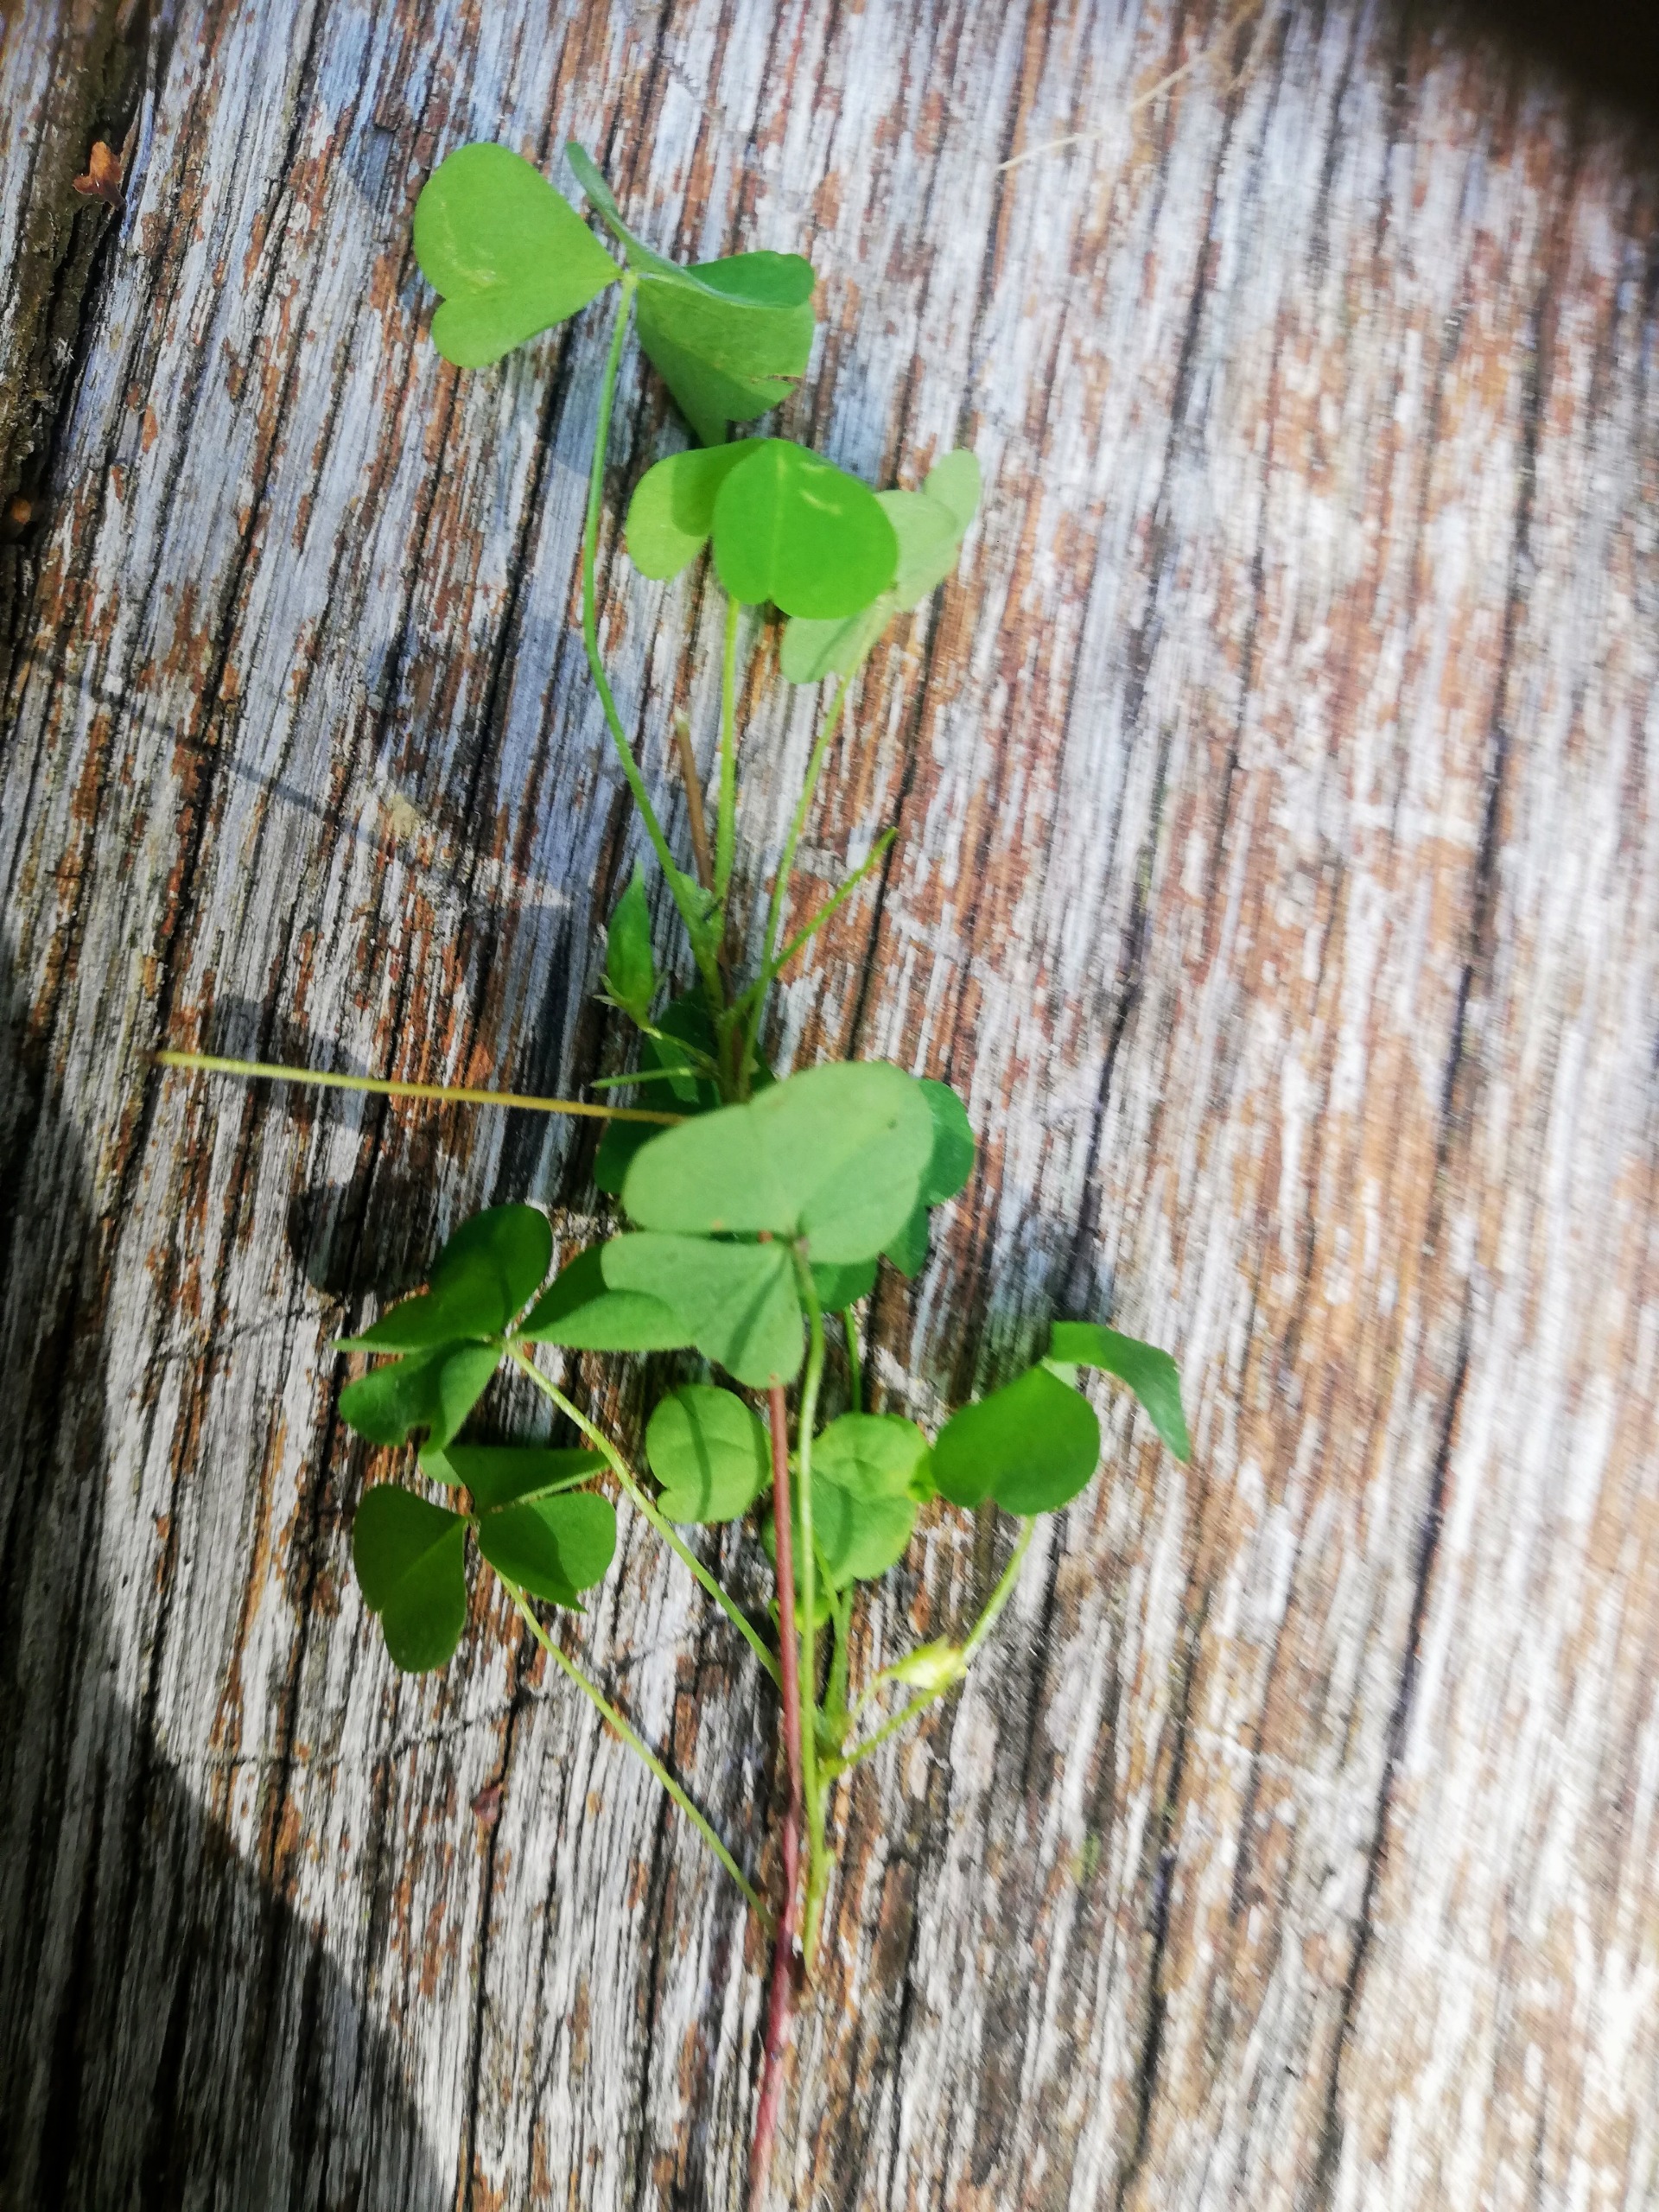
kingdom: Plantae
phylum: Tracheophyta
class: Magnoliopsida
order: Oxalidales
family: Oxalidaceae
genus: Oxalis
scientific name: Oxalis stricta
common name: Rank surkløver
